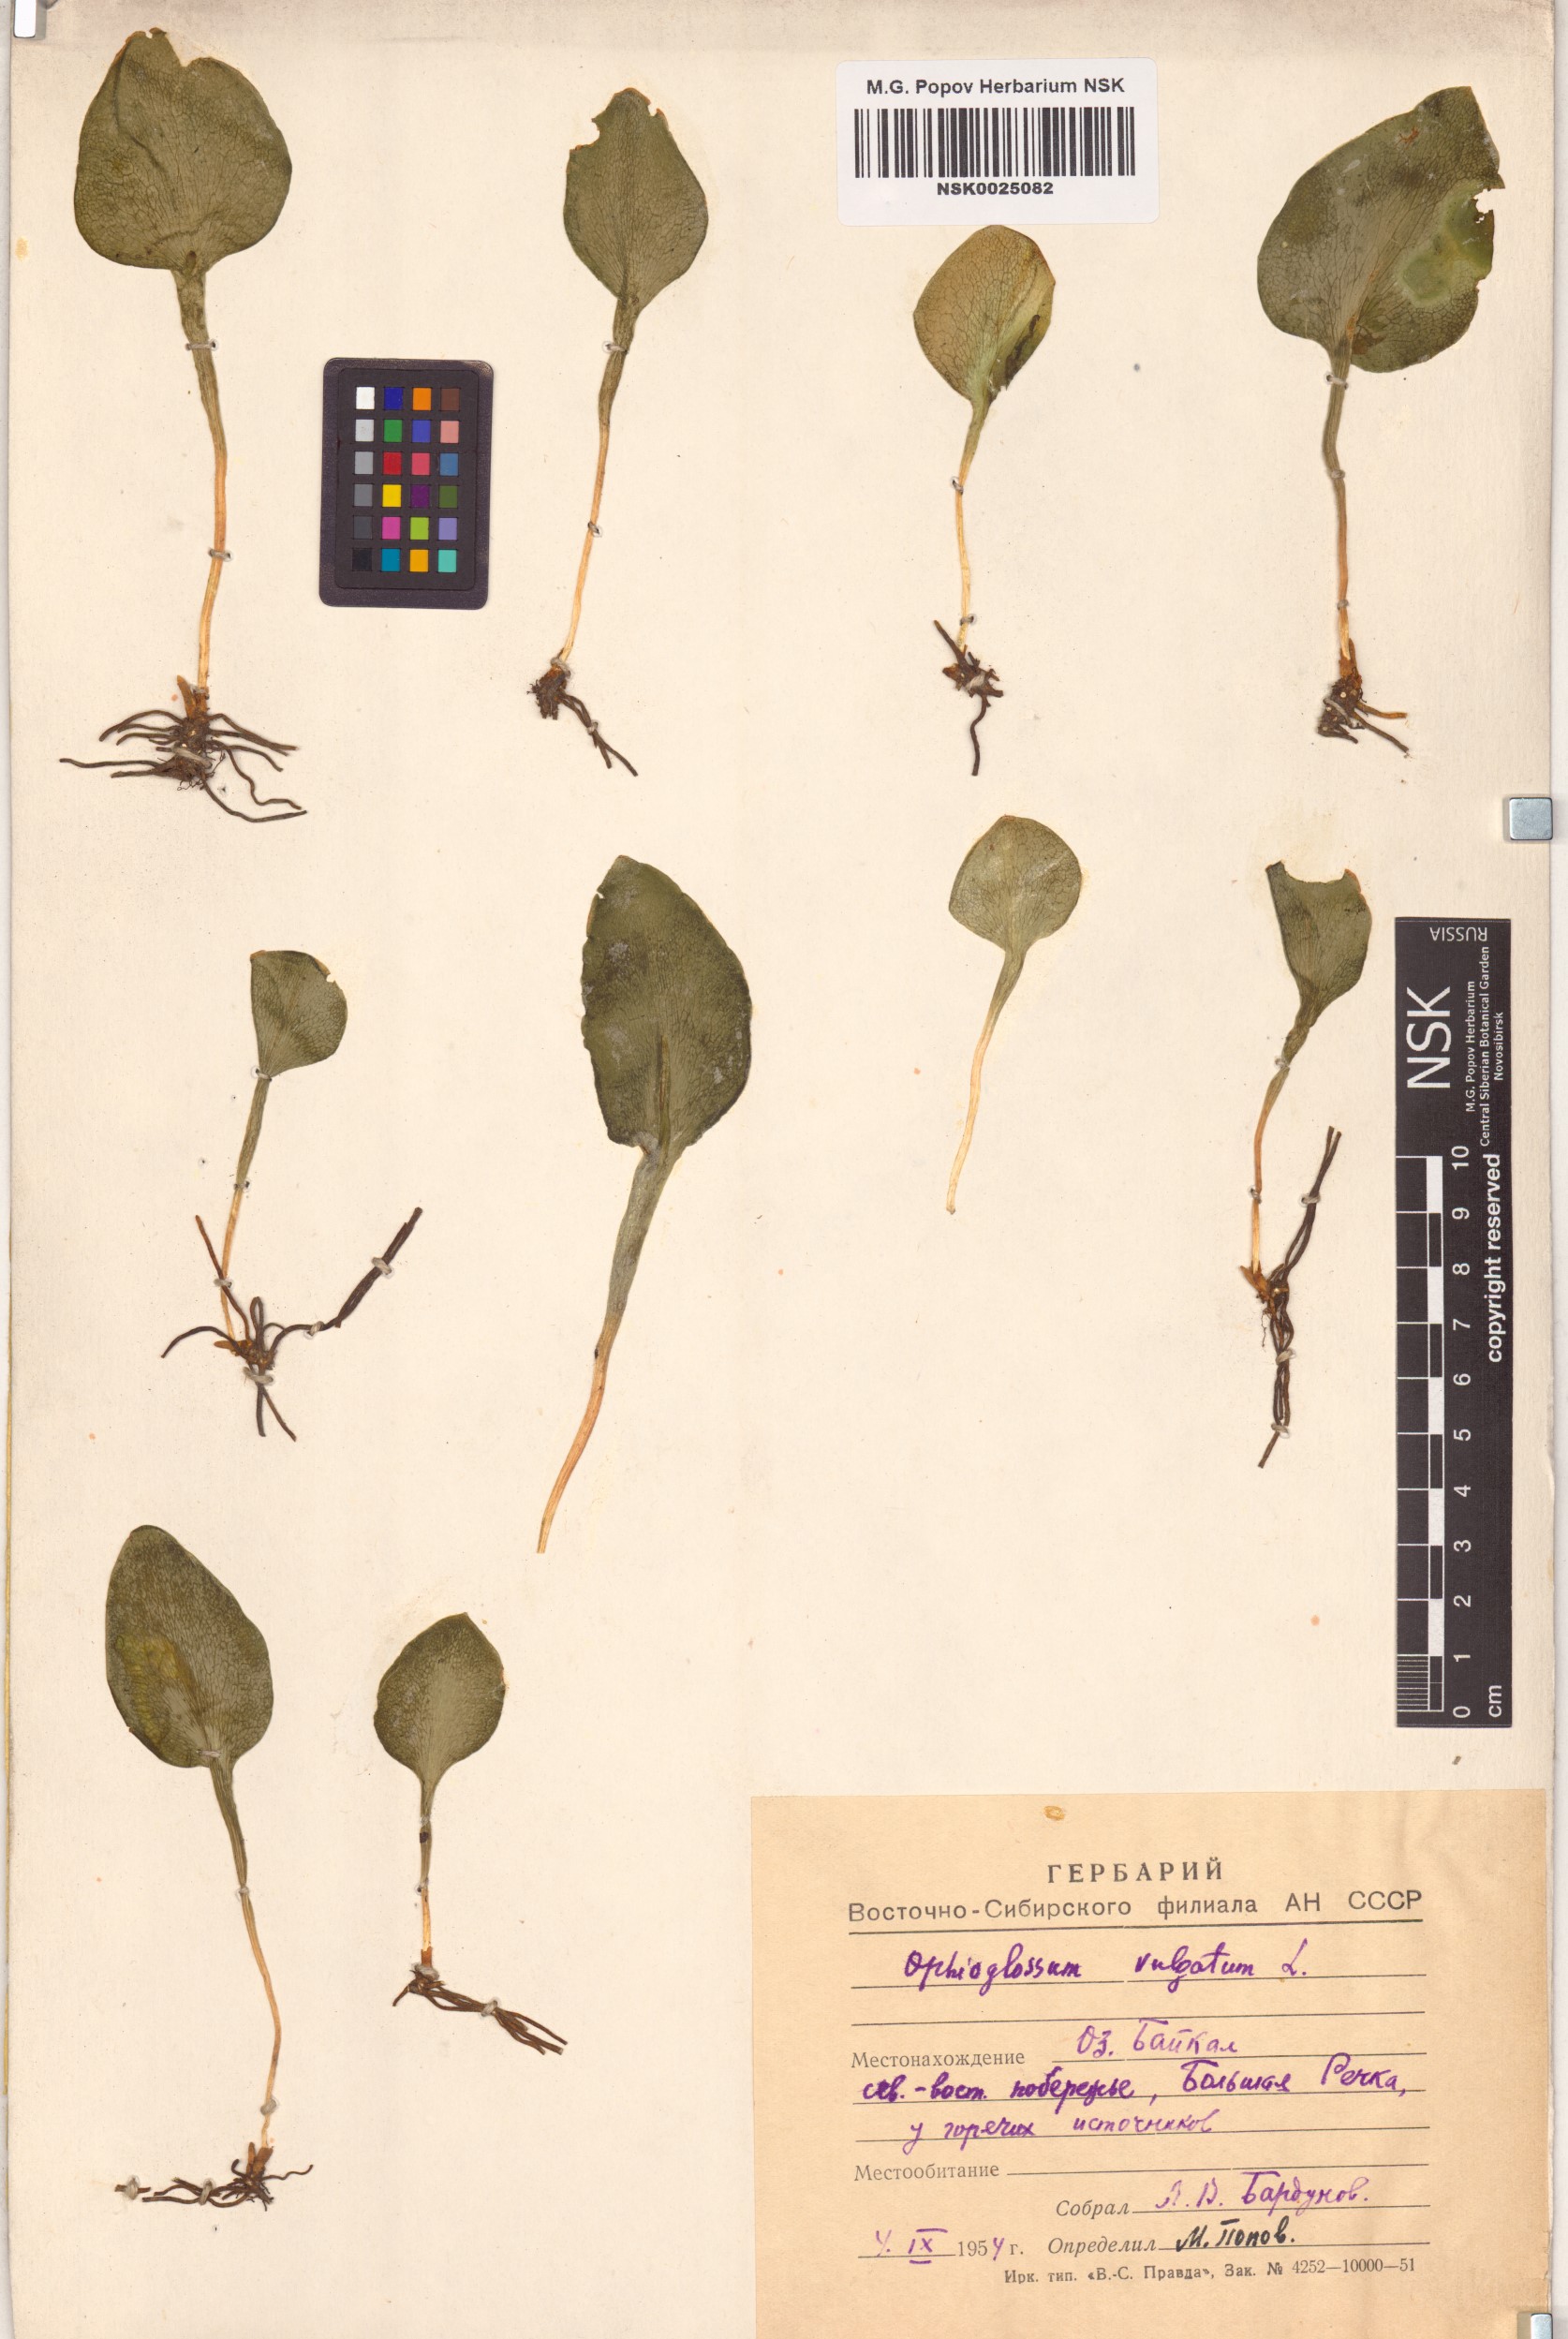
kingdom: Plantae
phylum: Tracheophyta
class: Polypodiopsida
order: Ophioglossales
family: Ophioglossaceae
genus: Ophioglossum
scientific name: Ophioglossum vulgatum
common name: Adder's-tongue
